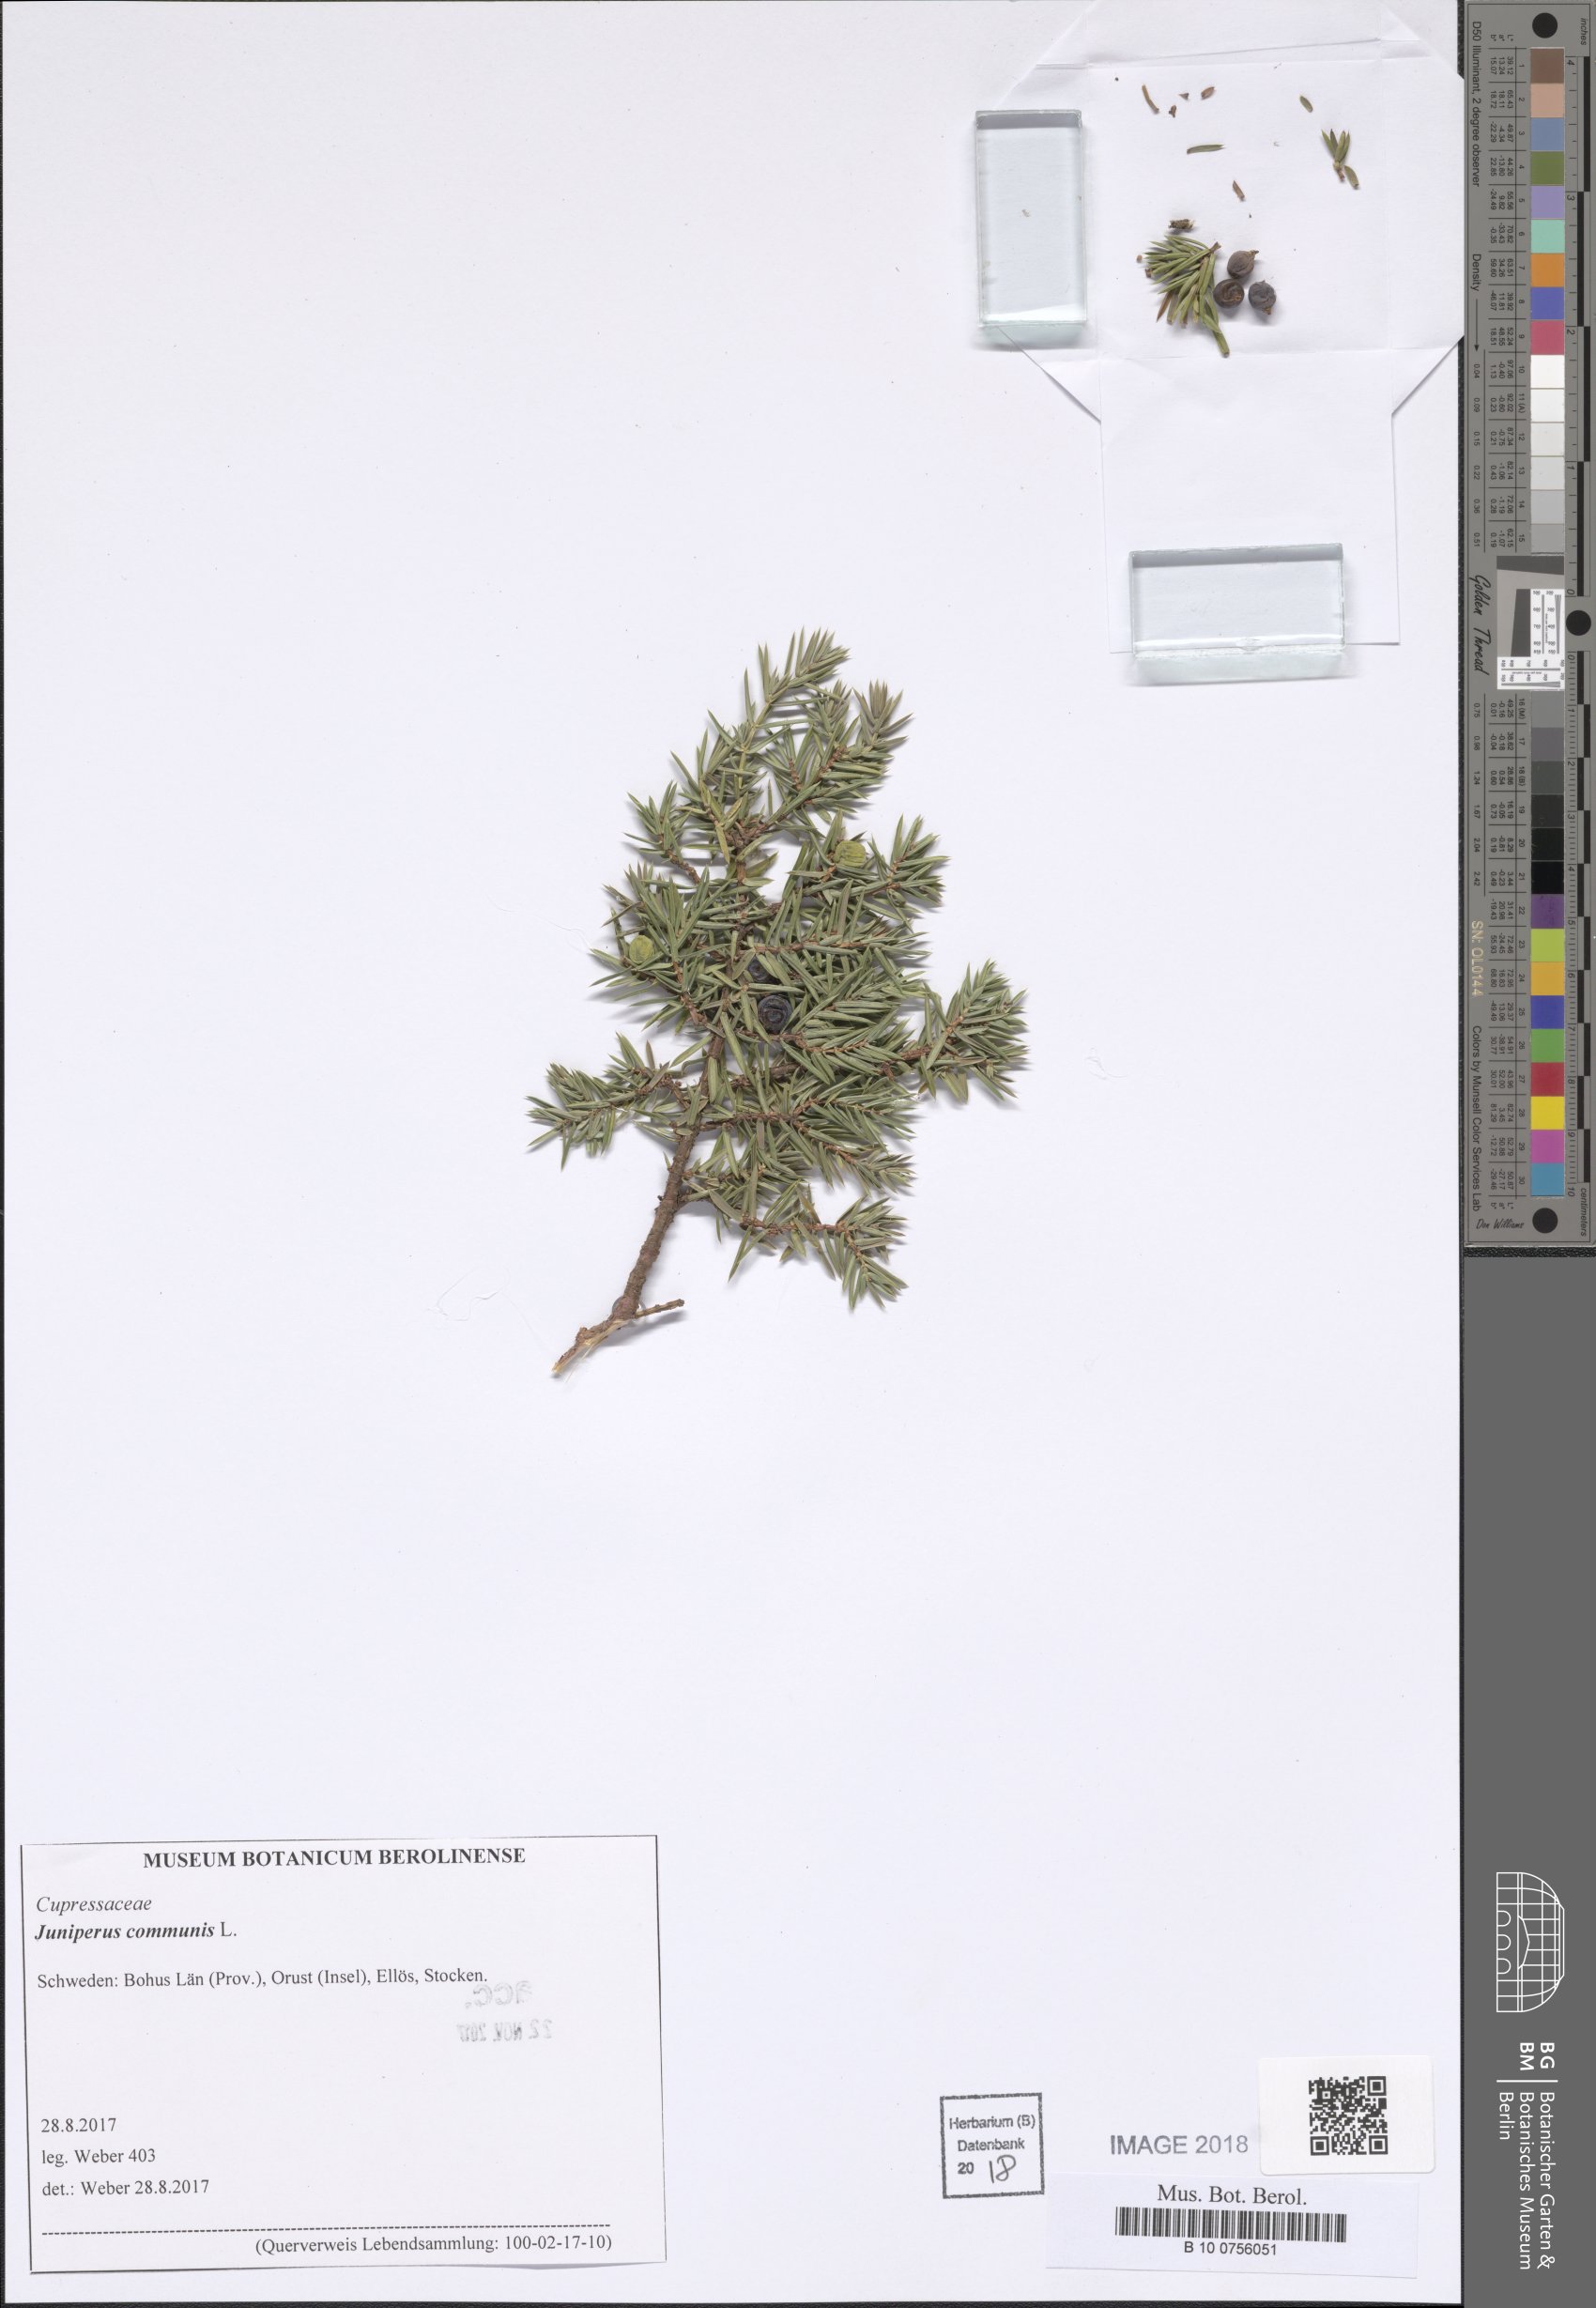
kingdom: Plantae
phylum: Tracheophyta
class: Pinopsida
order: Pinales
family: Cupressaceae
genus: Juniperus
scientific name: Juniperus communis
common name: Common juniper
